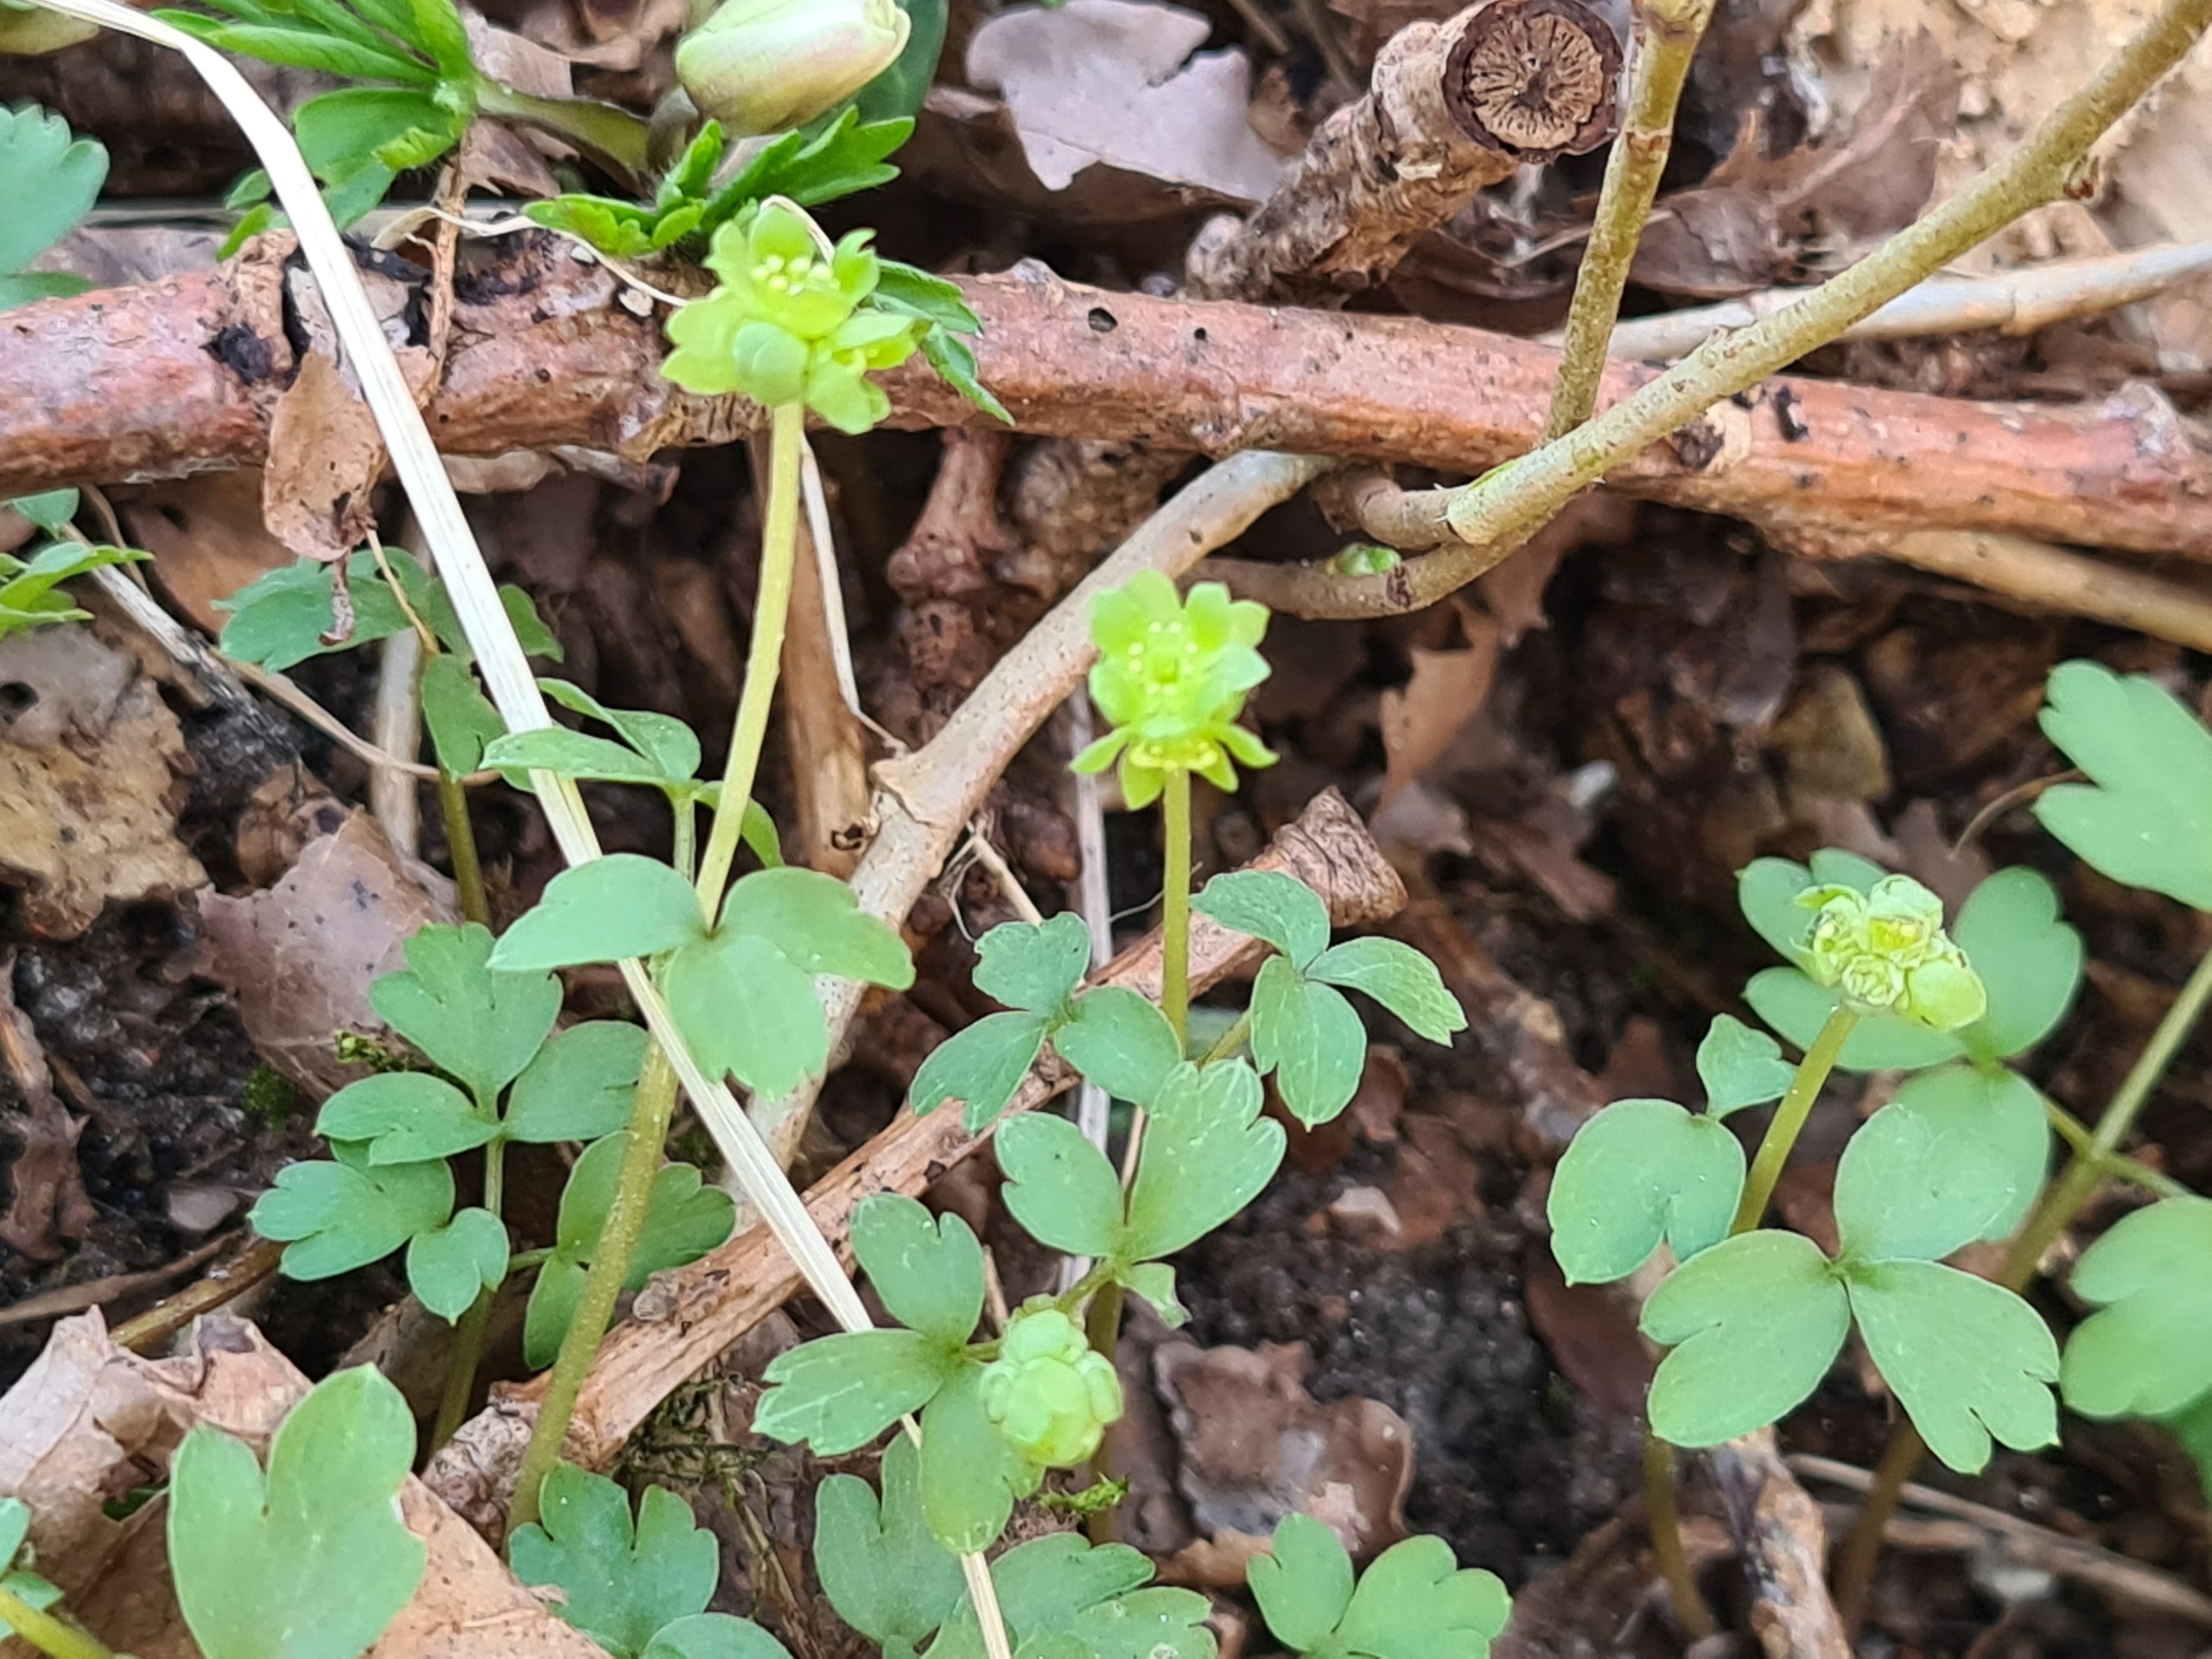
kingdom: Plantae
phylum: Tracheophyta
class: Magnoliopsida
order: Dipsacales
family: Viburnaceae
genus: Adoxa
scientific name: Adoxa moschatellina
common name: Desmerurt
